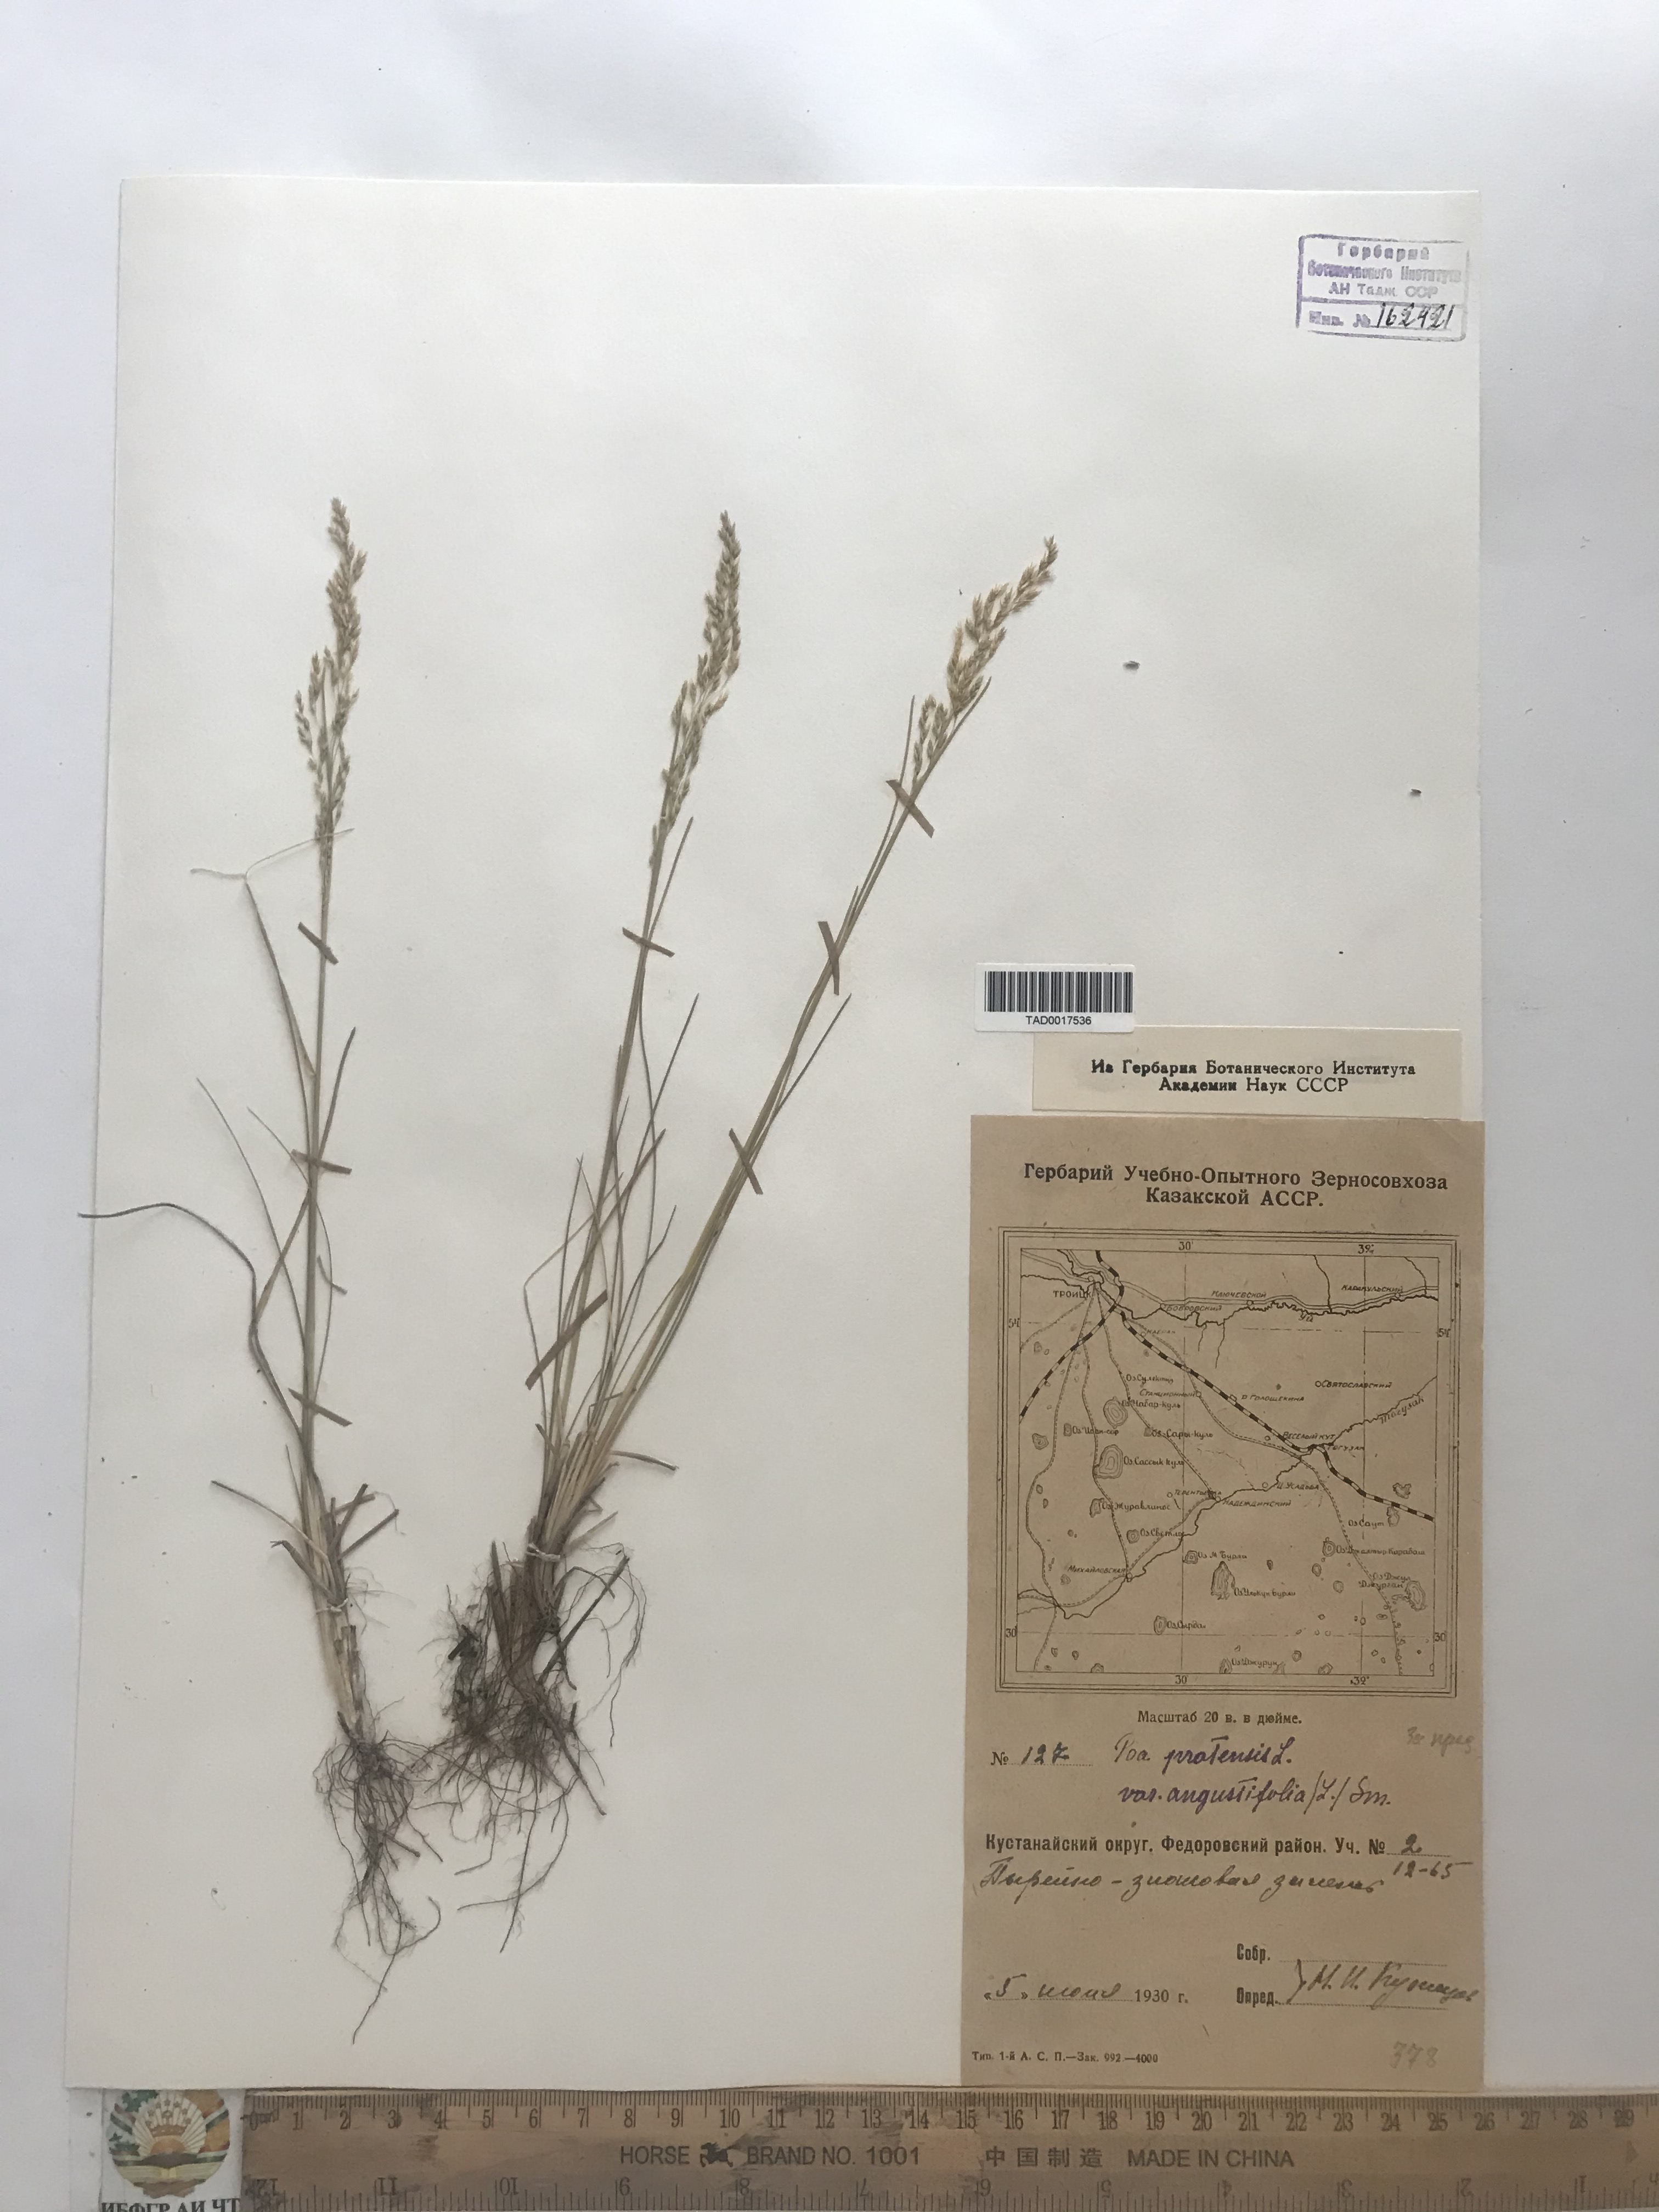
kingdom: Plantae
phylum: Tracheophyta
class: Liliopsida
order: Poales
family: Poaceae
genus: Poa
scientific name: Poa pratensis
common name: Kentucky bluegrass
